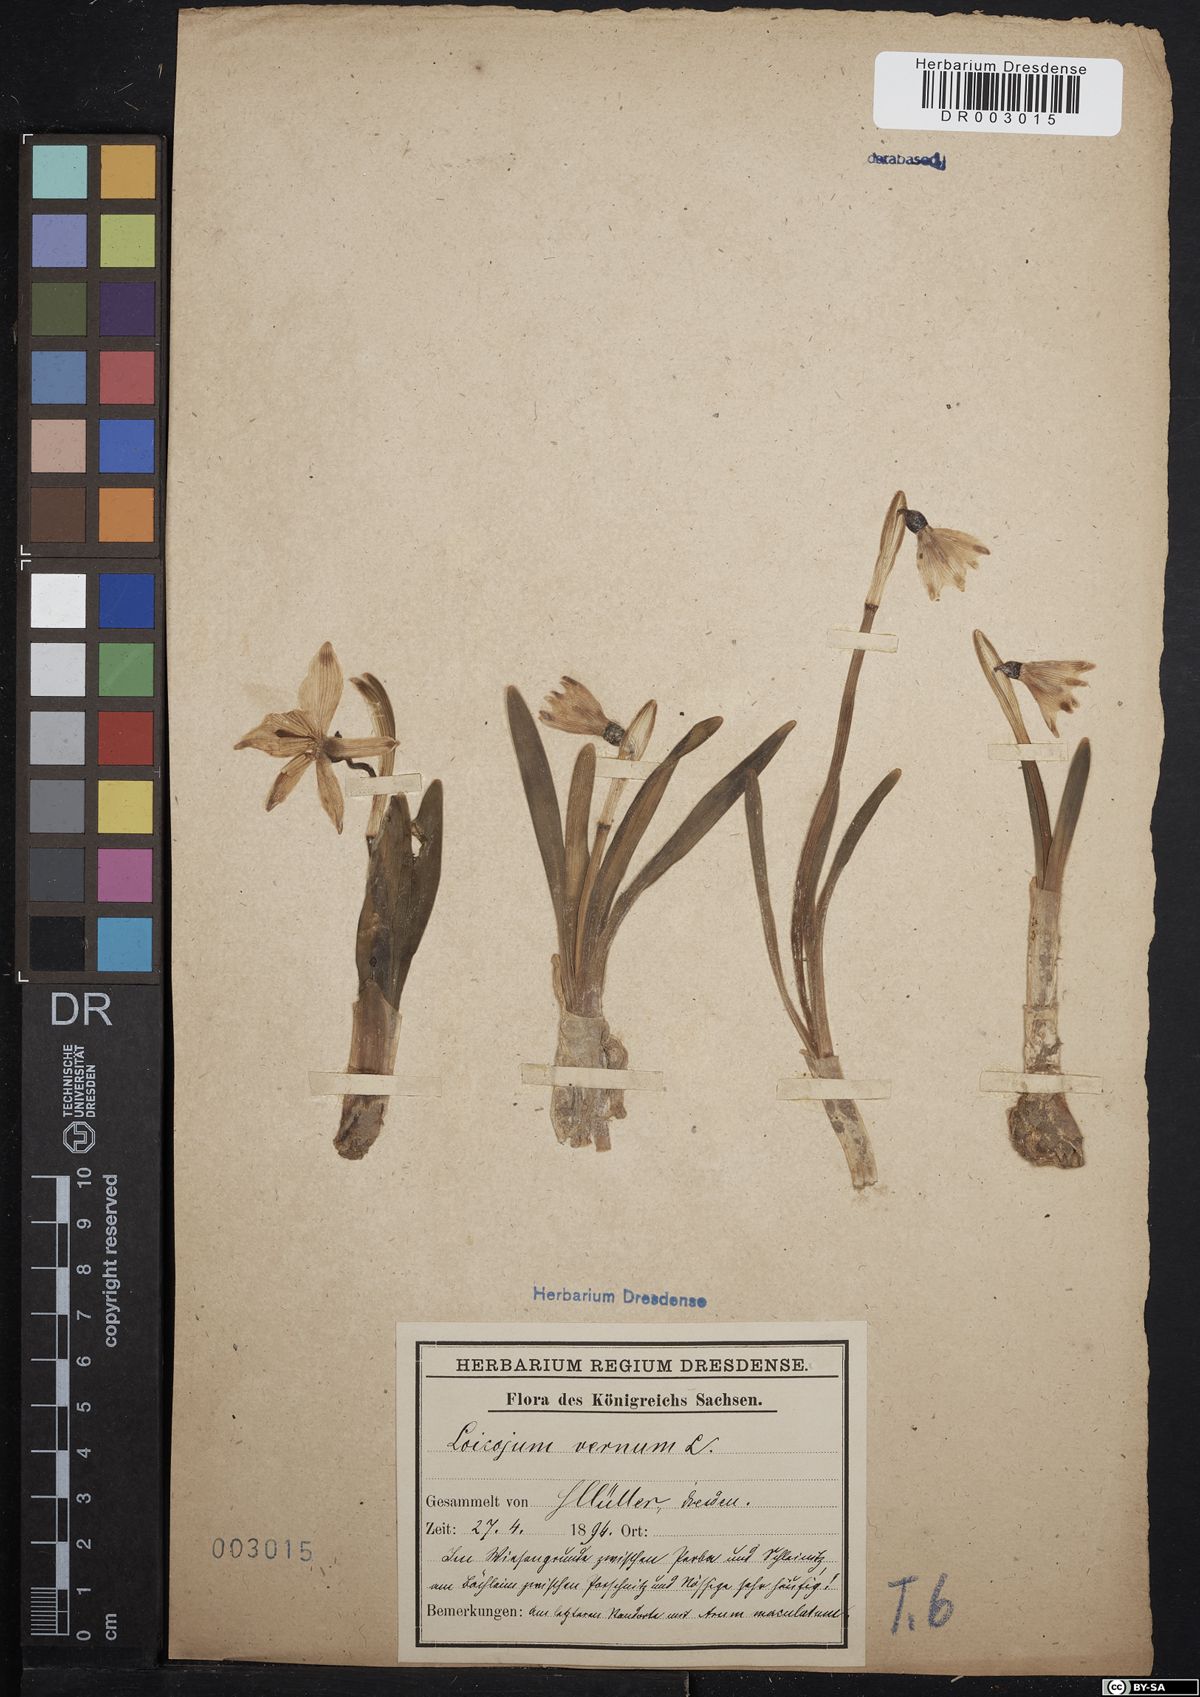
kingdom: Plantae
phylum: Tracheophyta
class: Liliopsida
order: Asparagales
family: Amaryllidaceae
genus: Leucojum
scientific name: Leucojum vernum
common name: Spring snowflake
